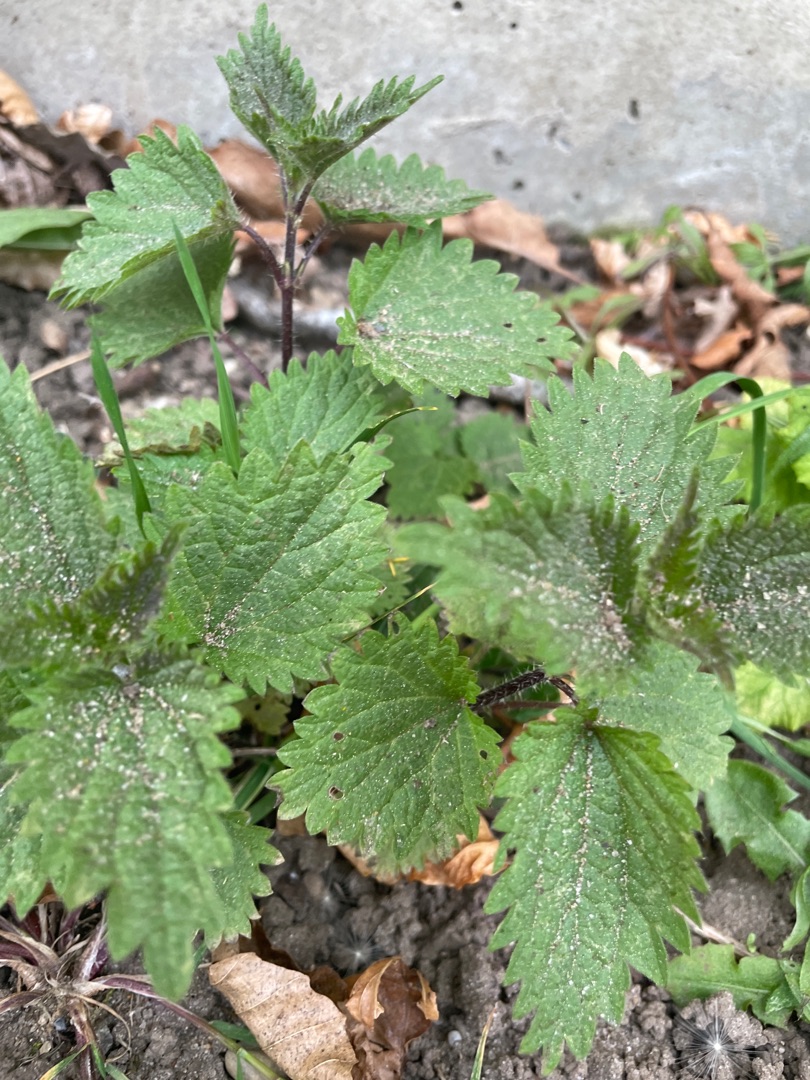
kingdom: Plantae
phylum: Tracheophyta
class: Magnoliopsida
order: Rosales
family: Urticaceae
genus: Urtica
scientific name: Urtica dioica
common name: Stor nælde
